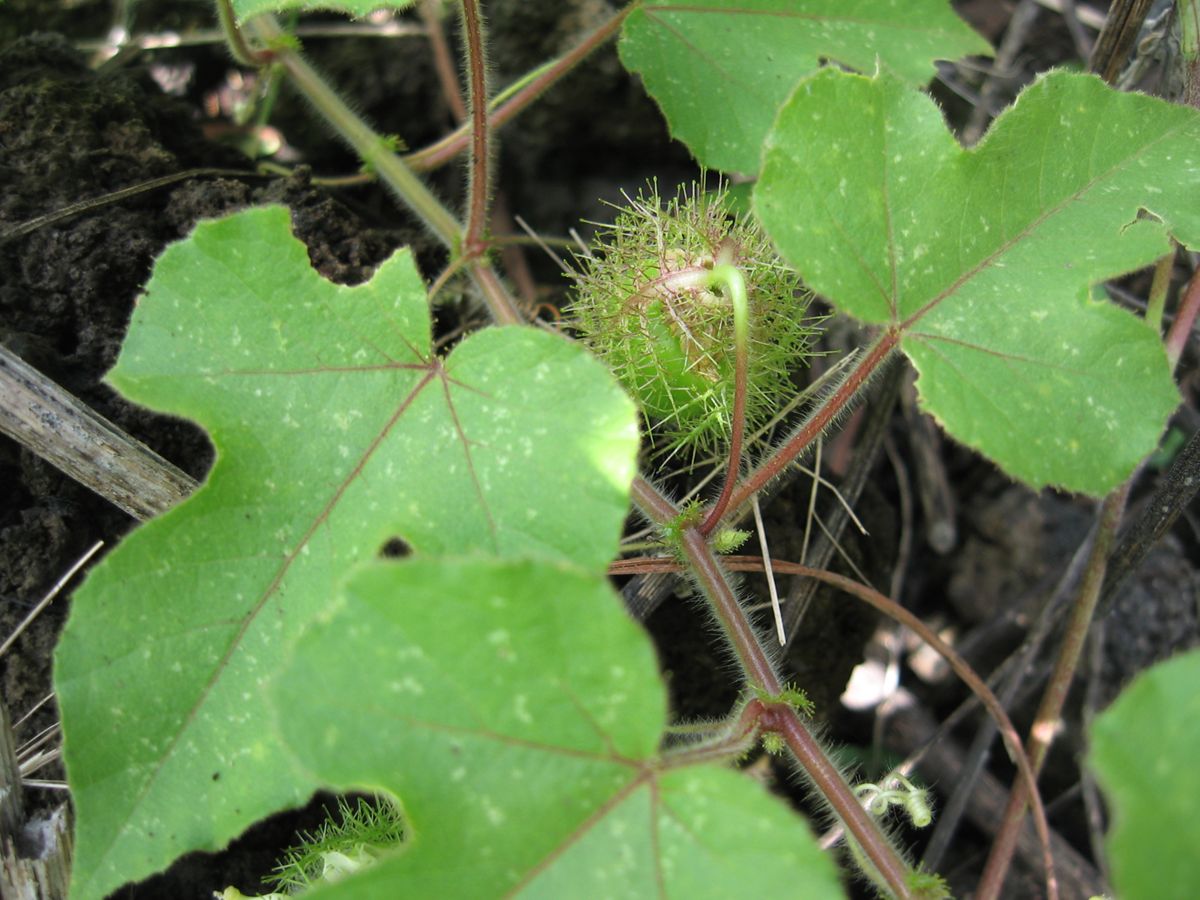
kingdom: Plantae
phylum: Tracheophyta
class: Magnoliopsida
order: Malpighiales
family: Passifloraceae
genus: Passiflora
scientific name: Passiflora foetida
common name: Fetid passionflower
